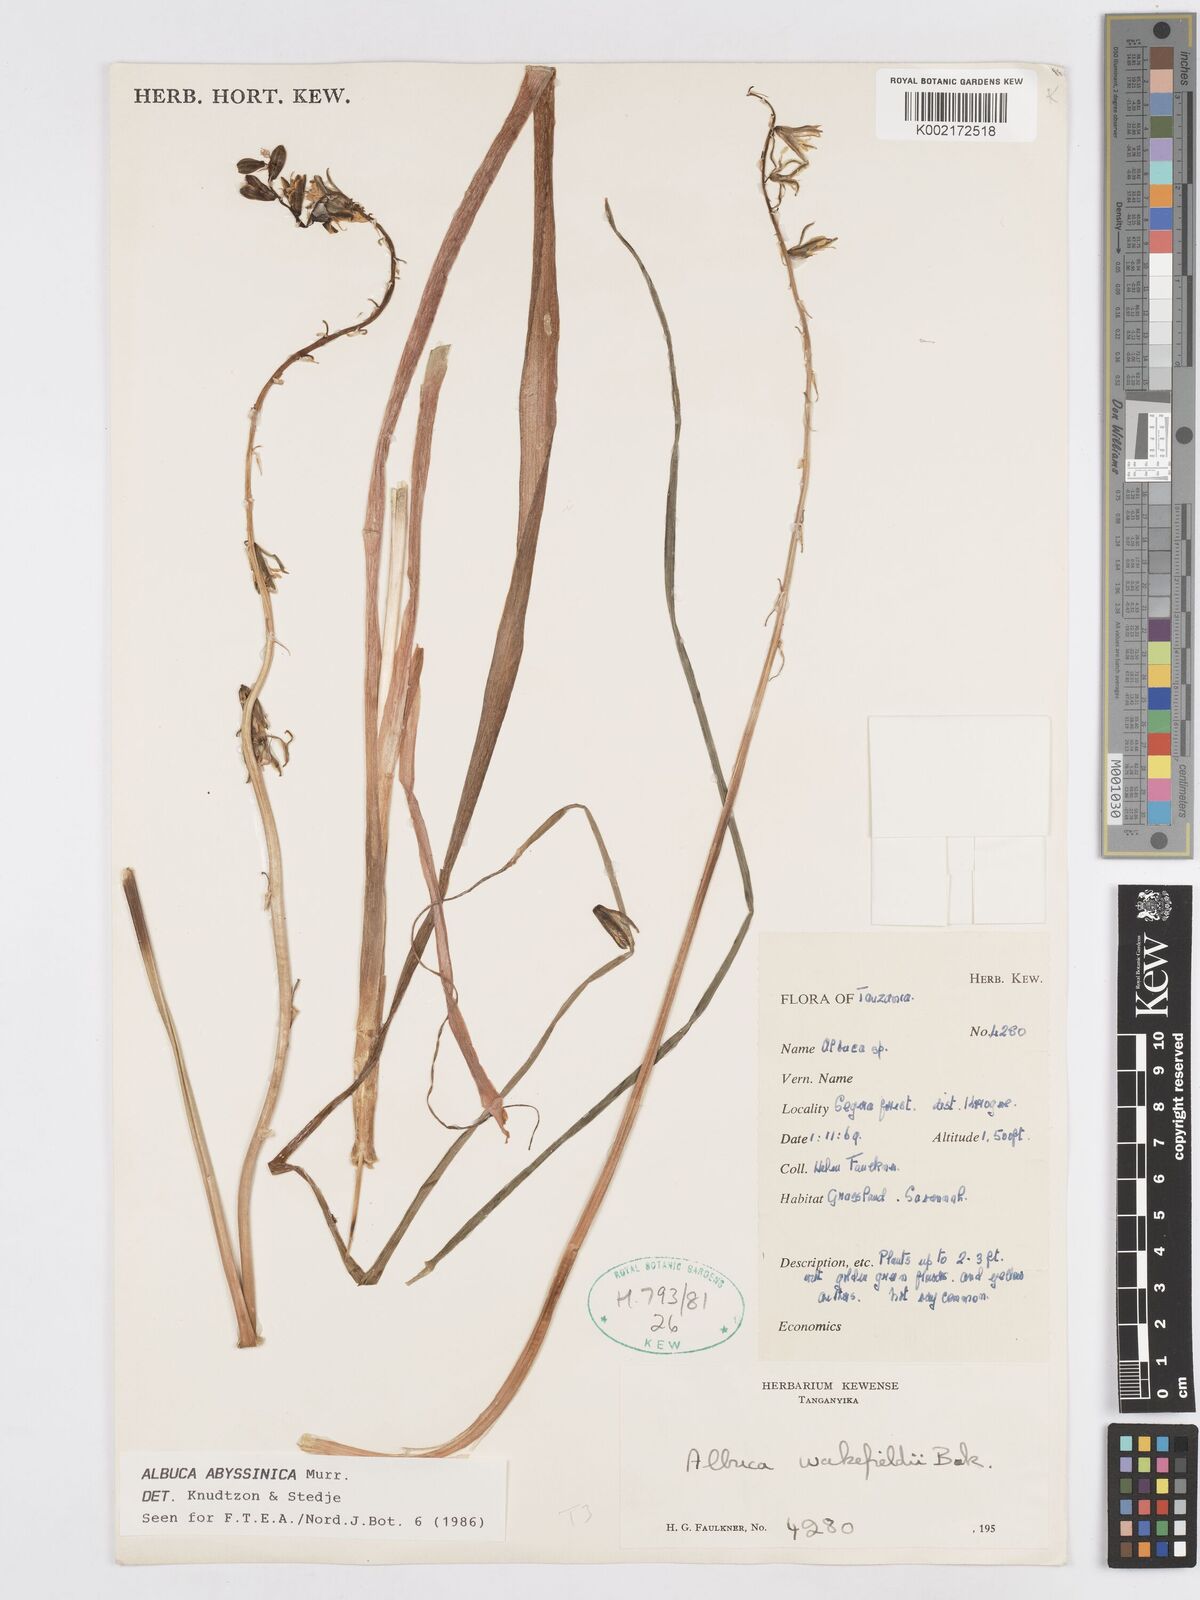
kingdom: Plantae
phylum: Tracheophyta
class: Liliopsida
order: Asparagales
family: Asparagaceae
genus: Albuca
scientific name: Albuca abyssinica
